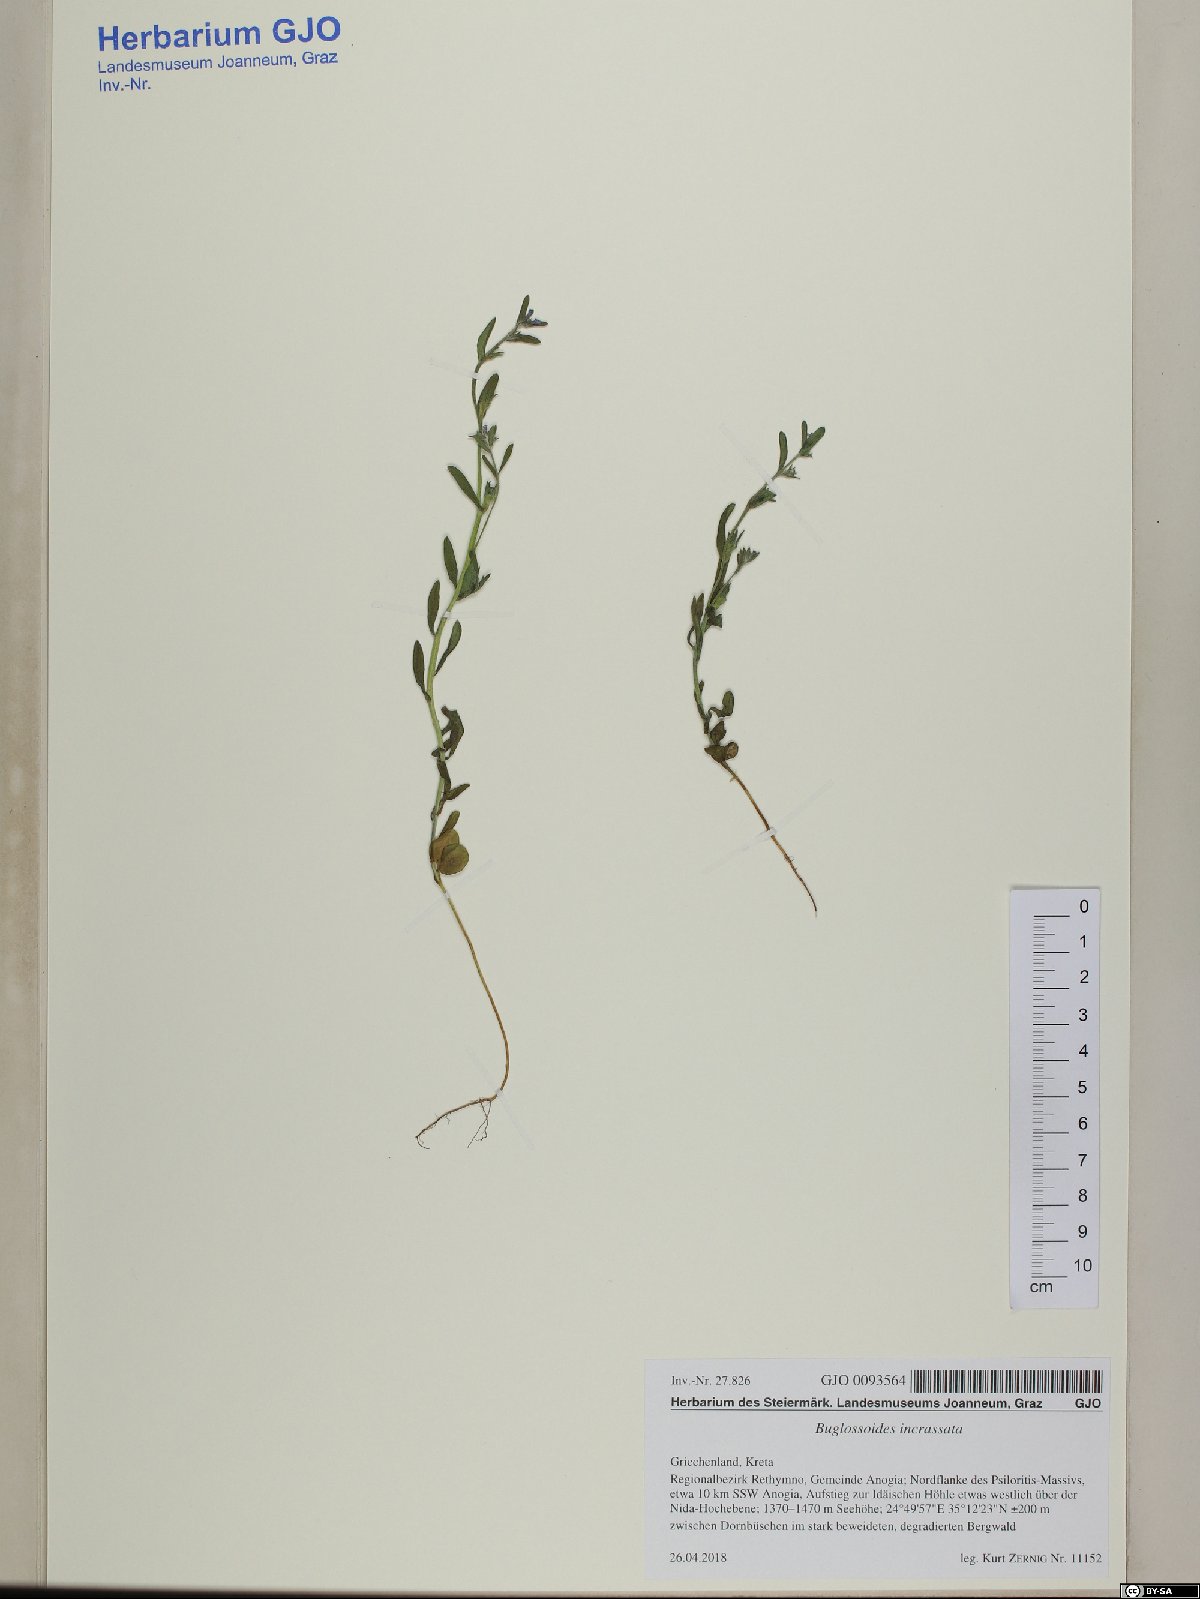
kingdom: Plantae
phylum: Tracheophyta
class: Magnoliopsida
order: Boraginales
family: Boraginaceae
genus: Buglossoides
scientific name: Buglossoides incrassata
